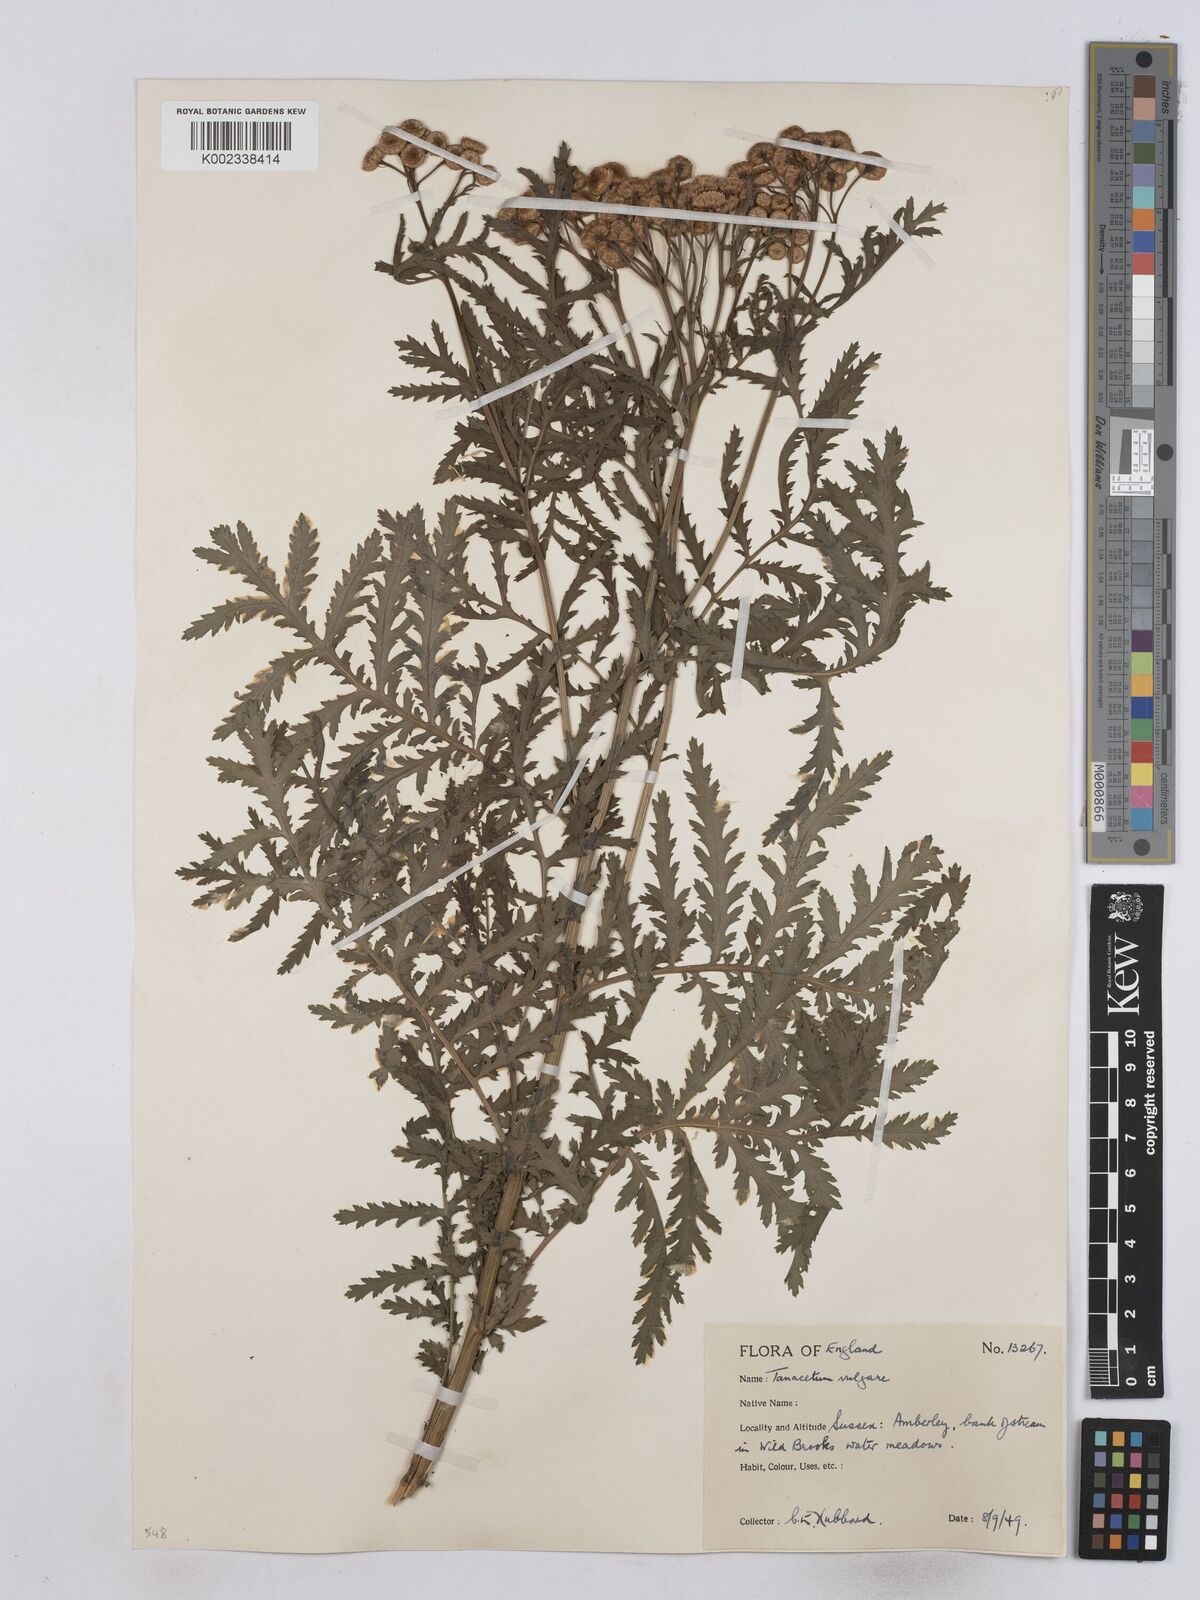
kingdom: Plantae
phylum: Tracheophyta
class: Magnoliopsida
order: Asterales
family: Asteraceae
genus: Tanacetum
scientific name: Tanacetum vulgare
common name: Common tansy
